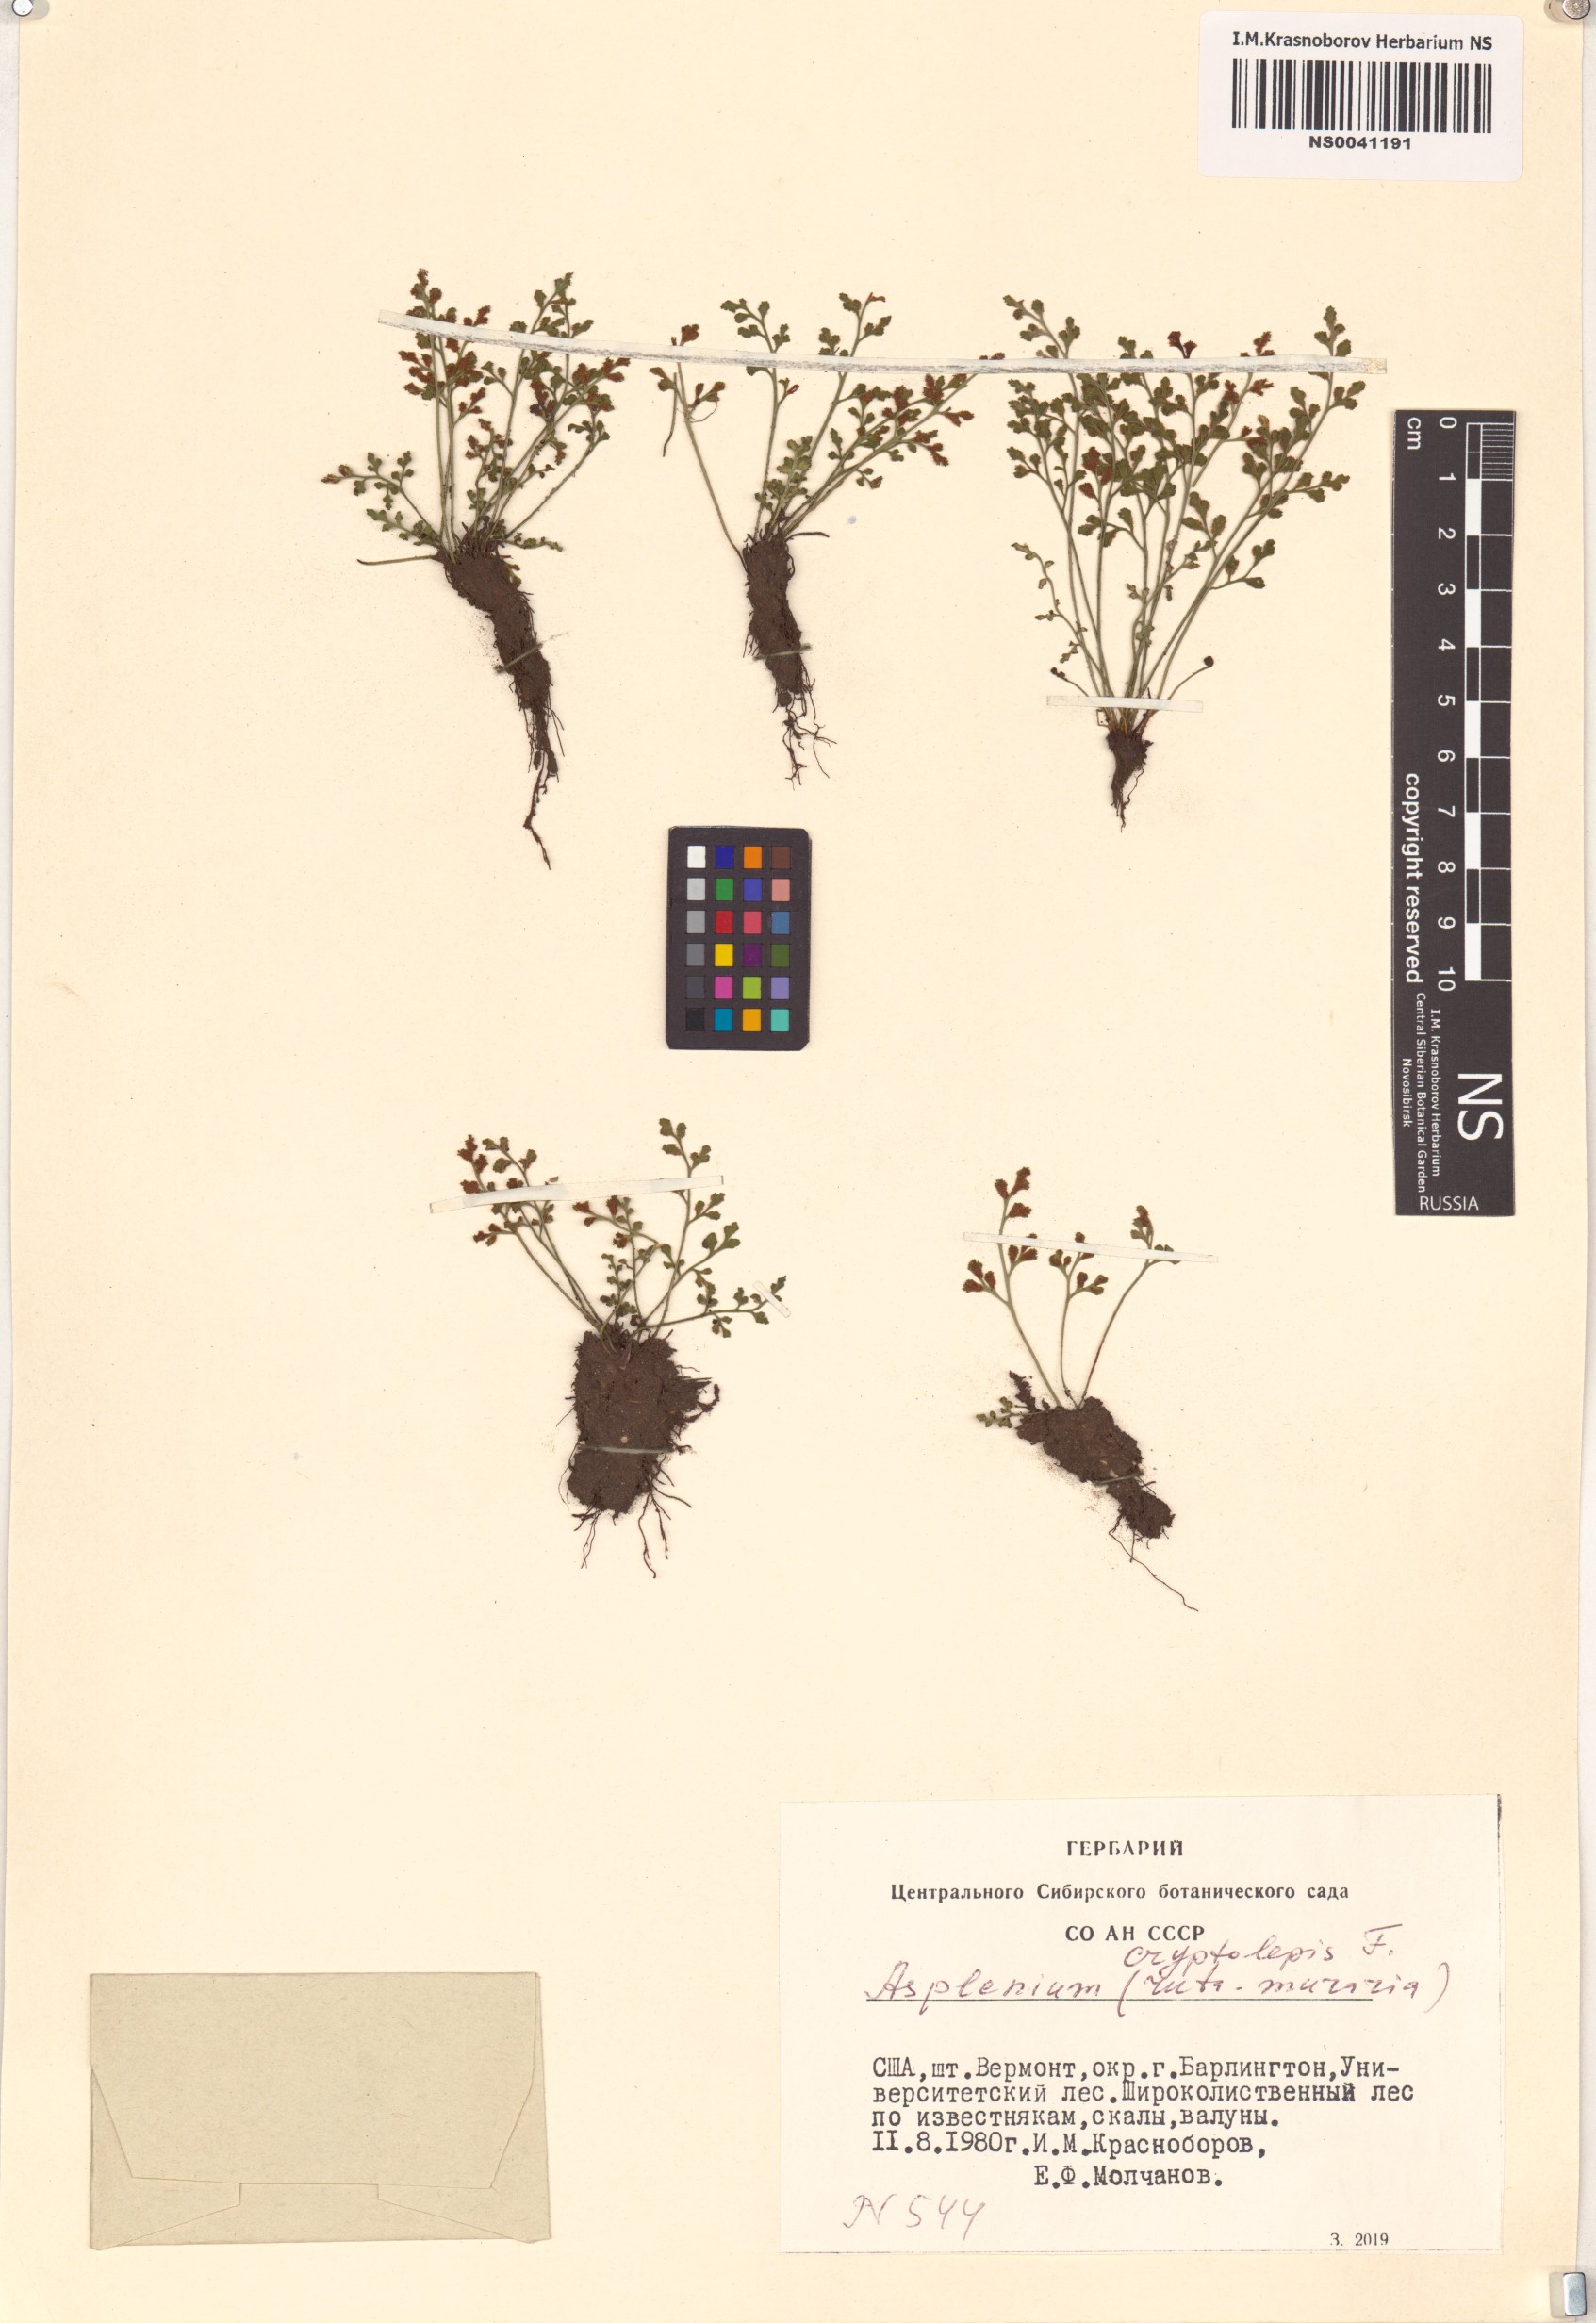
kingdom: Plantae
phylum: Tracheophyta
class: Polypodiopsida
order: Polypodiales
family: Aspleniaceae
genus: Asplenium
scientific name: Asplenium ruta-muraria
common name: Wall-rue
